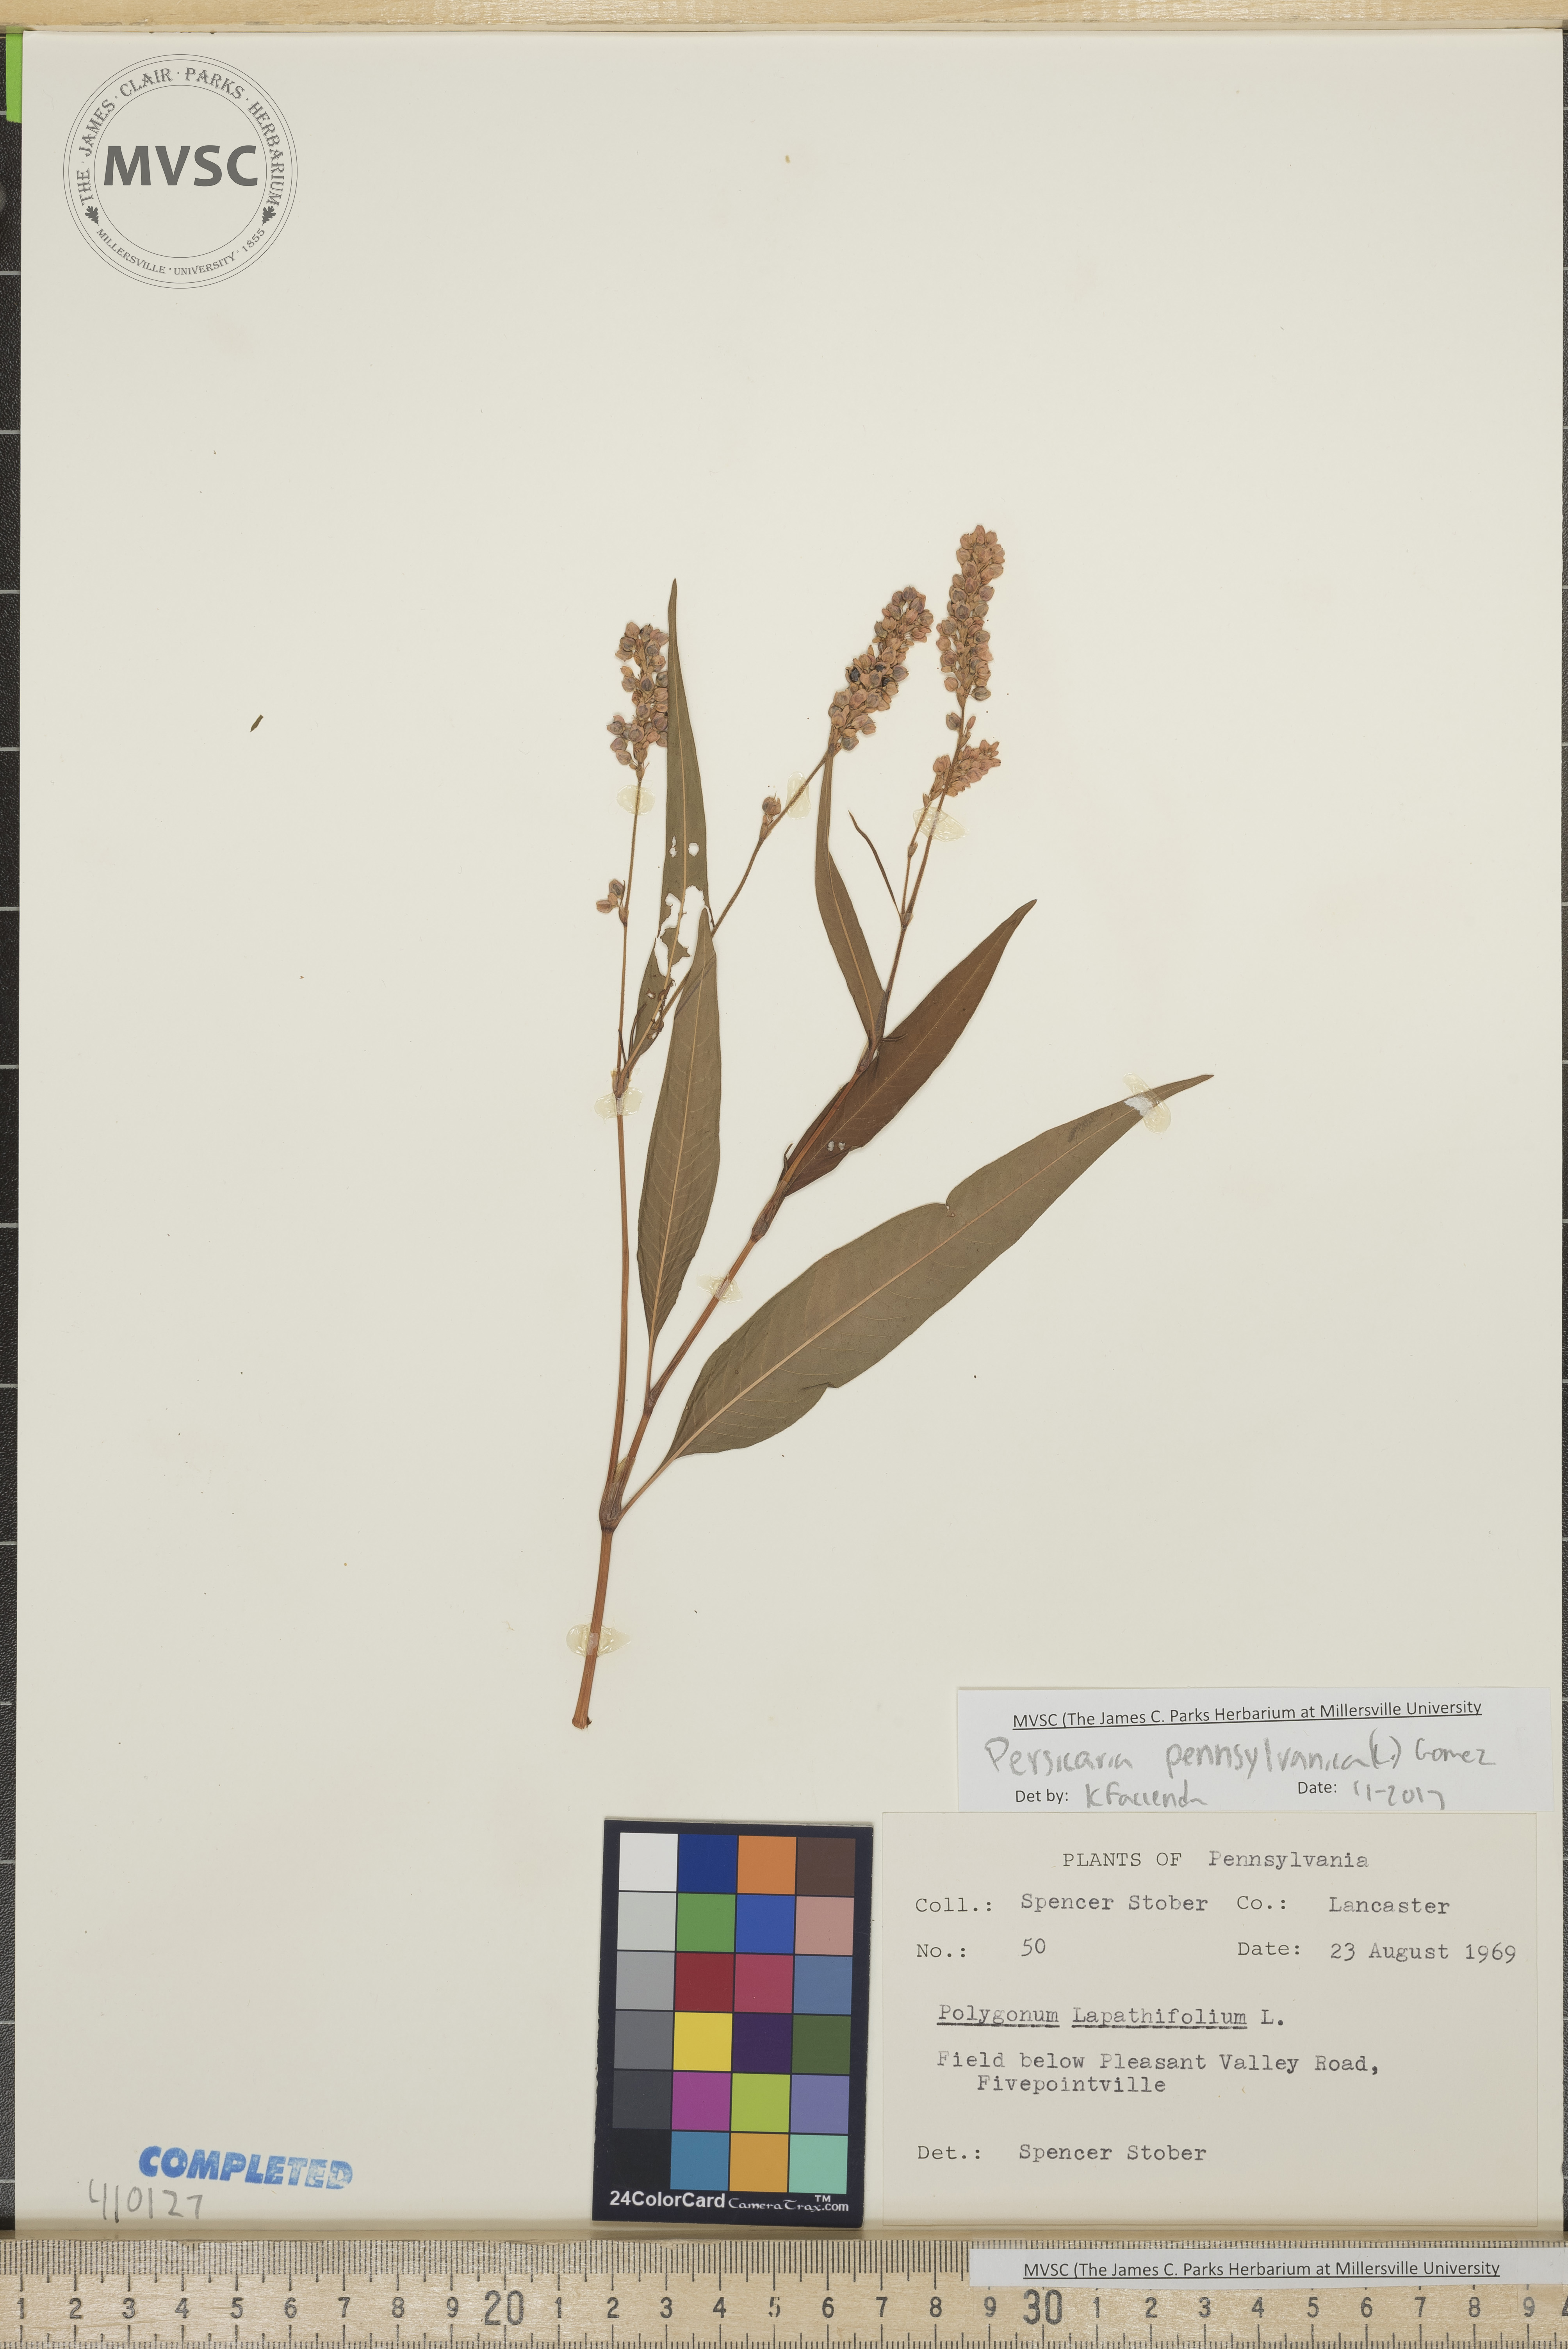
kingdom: Plantae
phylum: Tracheophyta
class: Magnoliopsida
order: Caryophyllales
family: Polygonaceae
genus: Persicaria
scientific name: Persicaria pensylvanica
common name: Pinkweed
